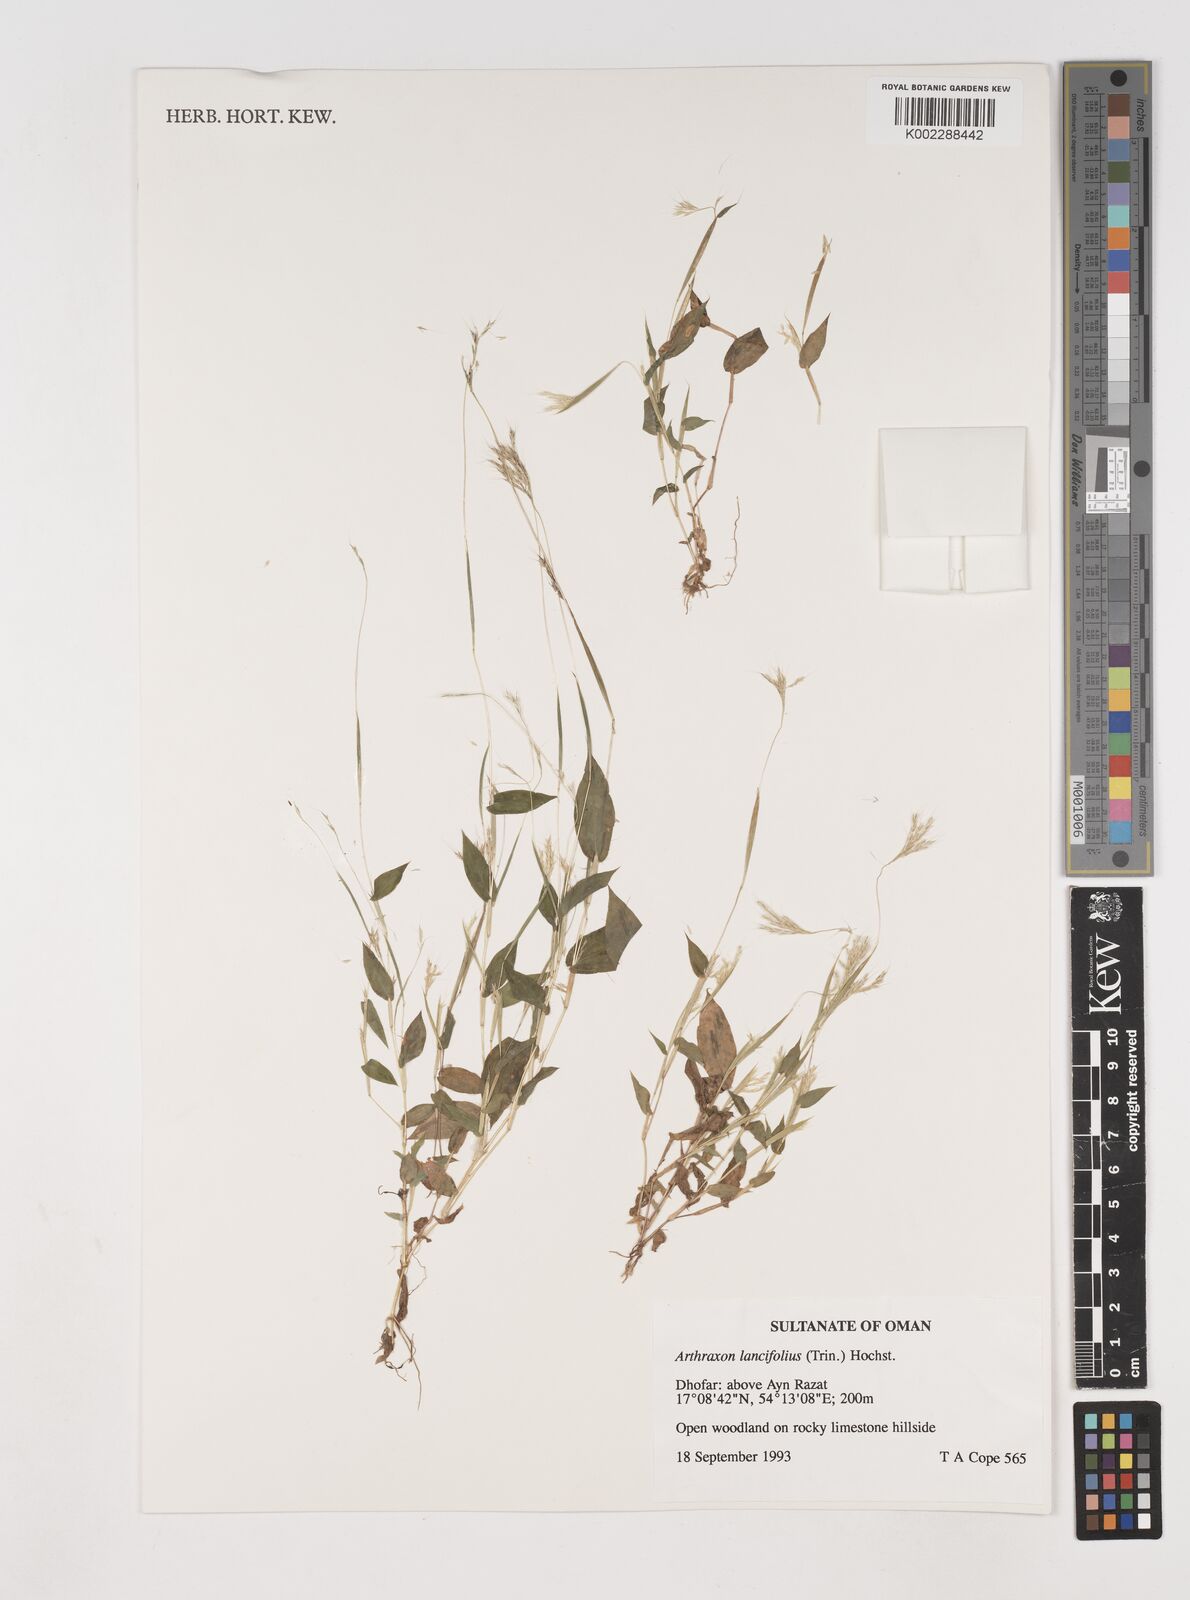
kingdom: Plantae
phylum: Tracheophyta
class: Liliopsida
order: Poales
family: Poaceae
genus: Arthraxon
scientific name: Arthraxon lancifolius
